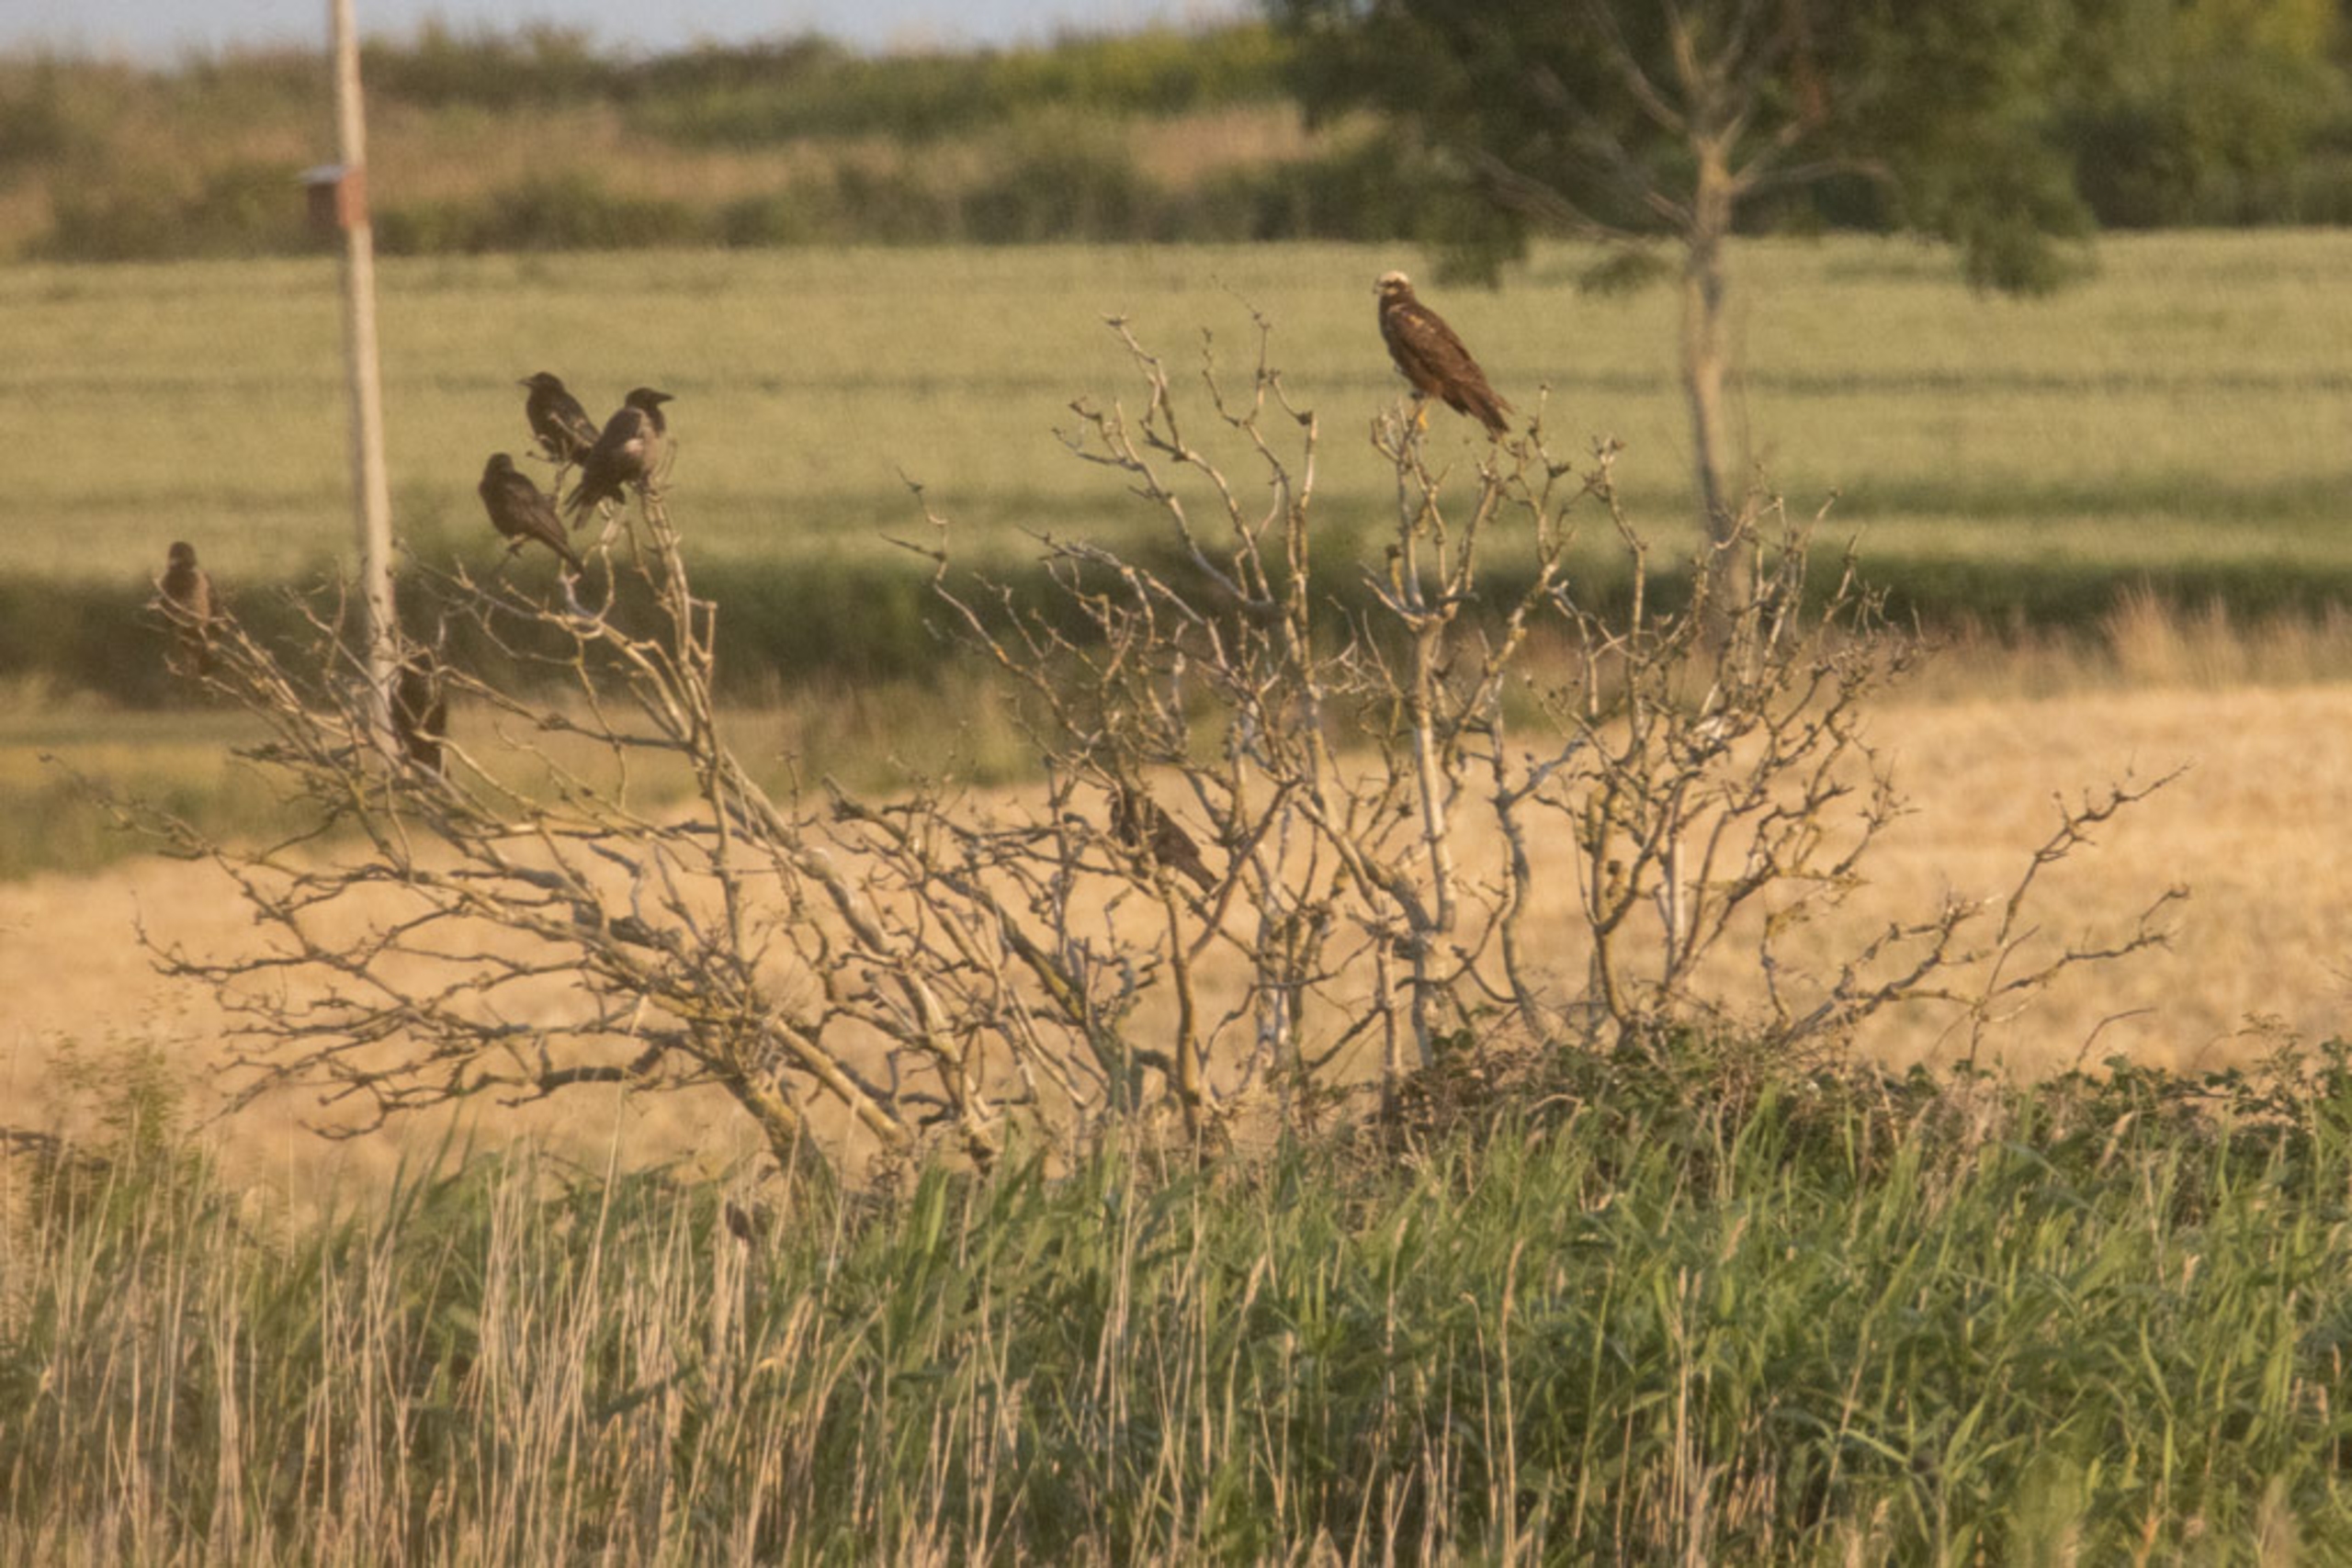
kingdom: Animalia
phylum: Chordata
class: Aves
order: Accipitriformes
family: Accipitridae
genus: Circus
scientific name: Circus aeruginosus
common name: Rørhøg
